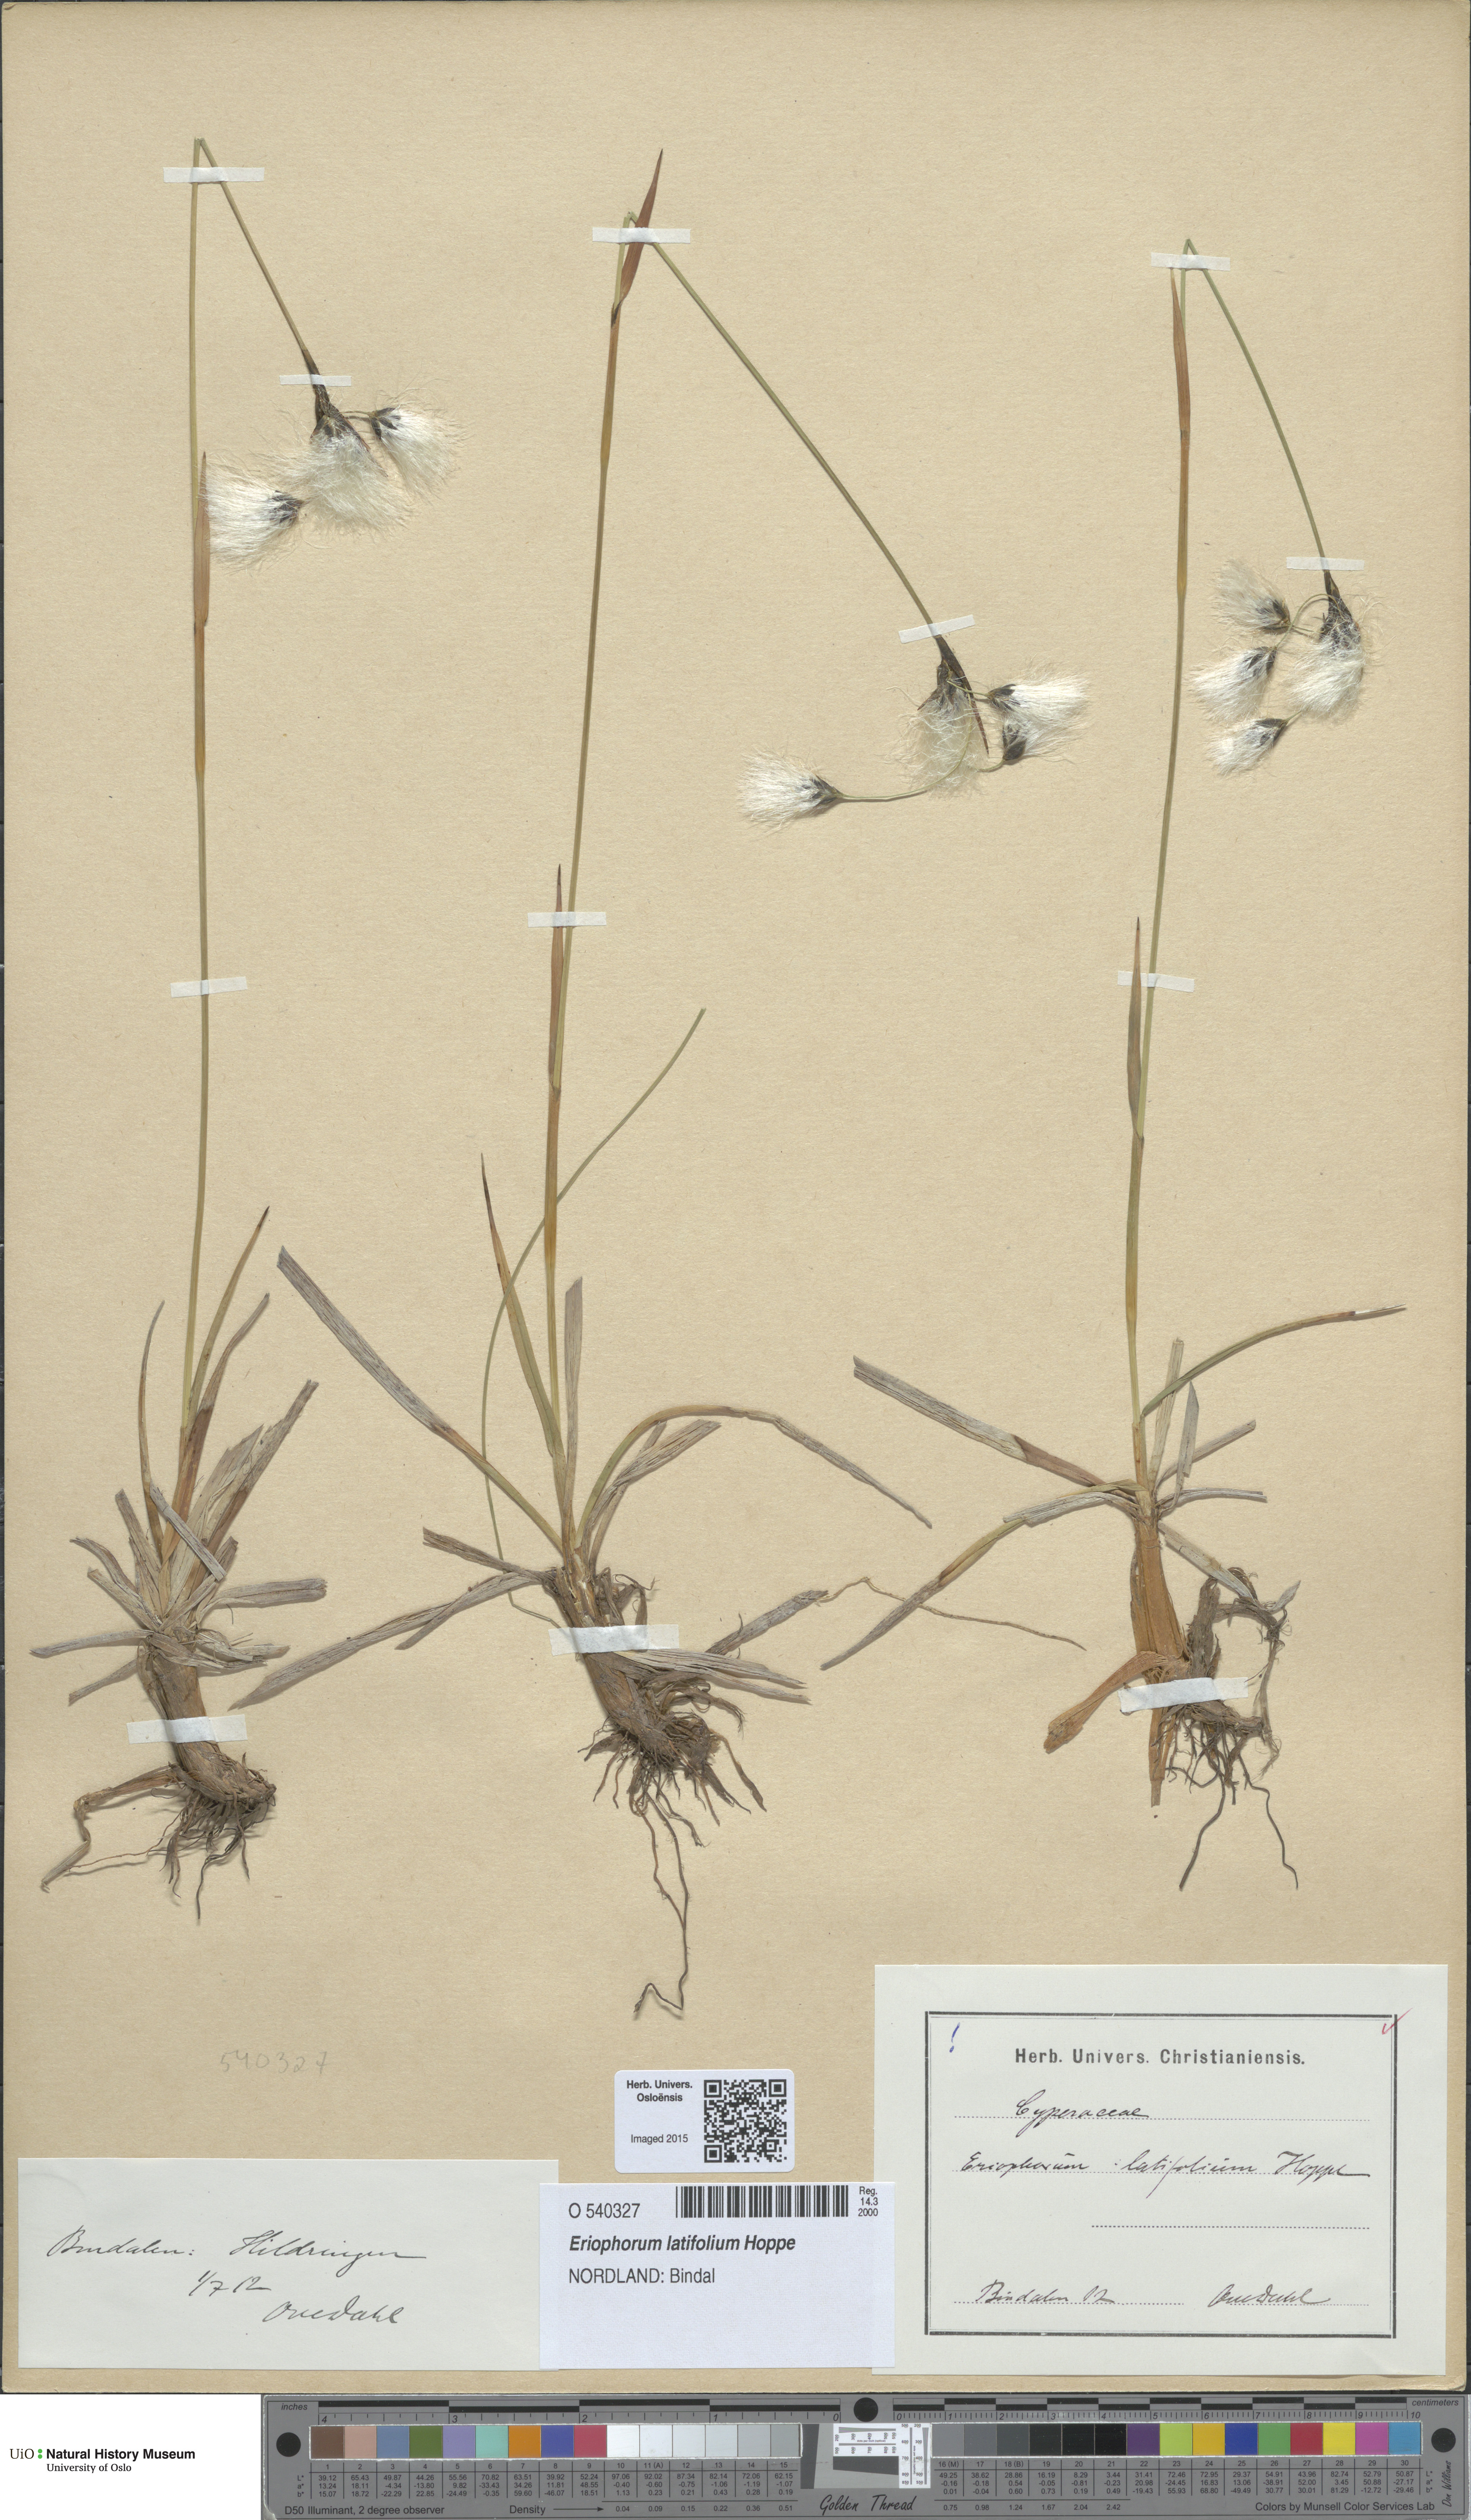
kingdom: Plantae
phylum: Tracheophyta
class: Liliopsida
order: Poales
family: Cyperaceae
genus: Eriophorum
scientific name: Eriophorum latifolium
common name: Broad-leaved cottongrass
